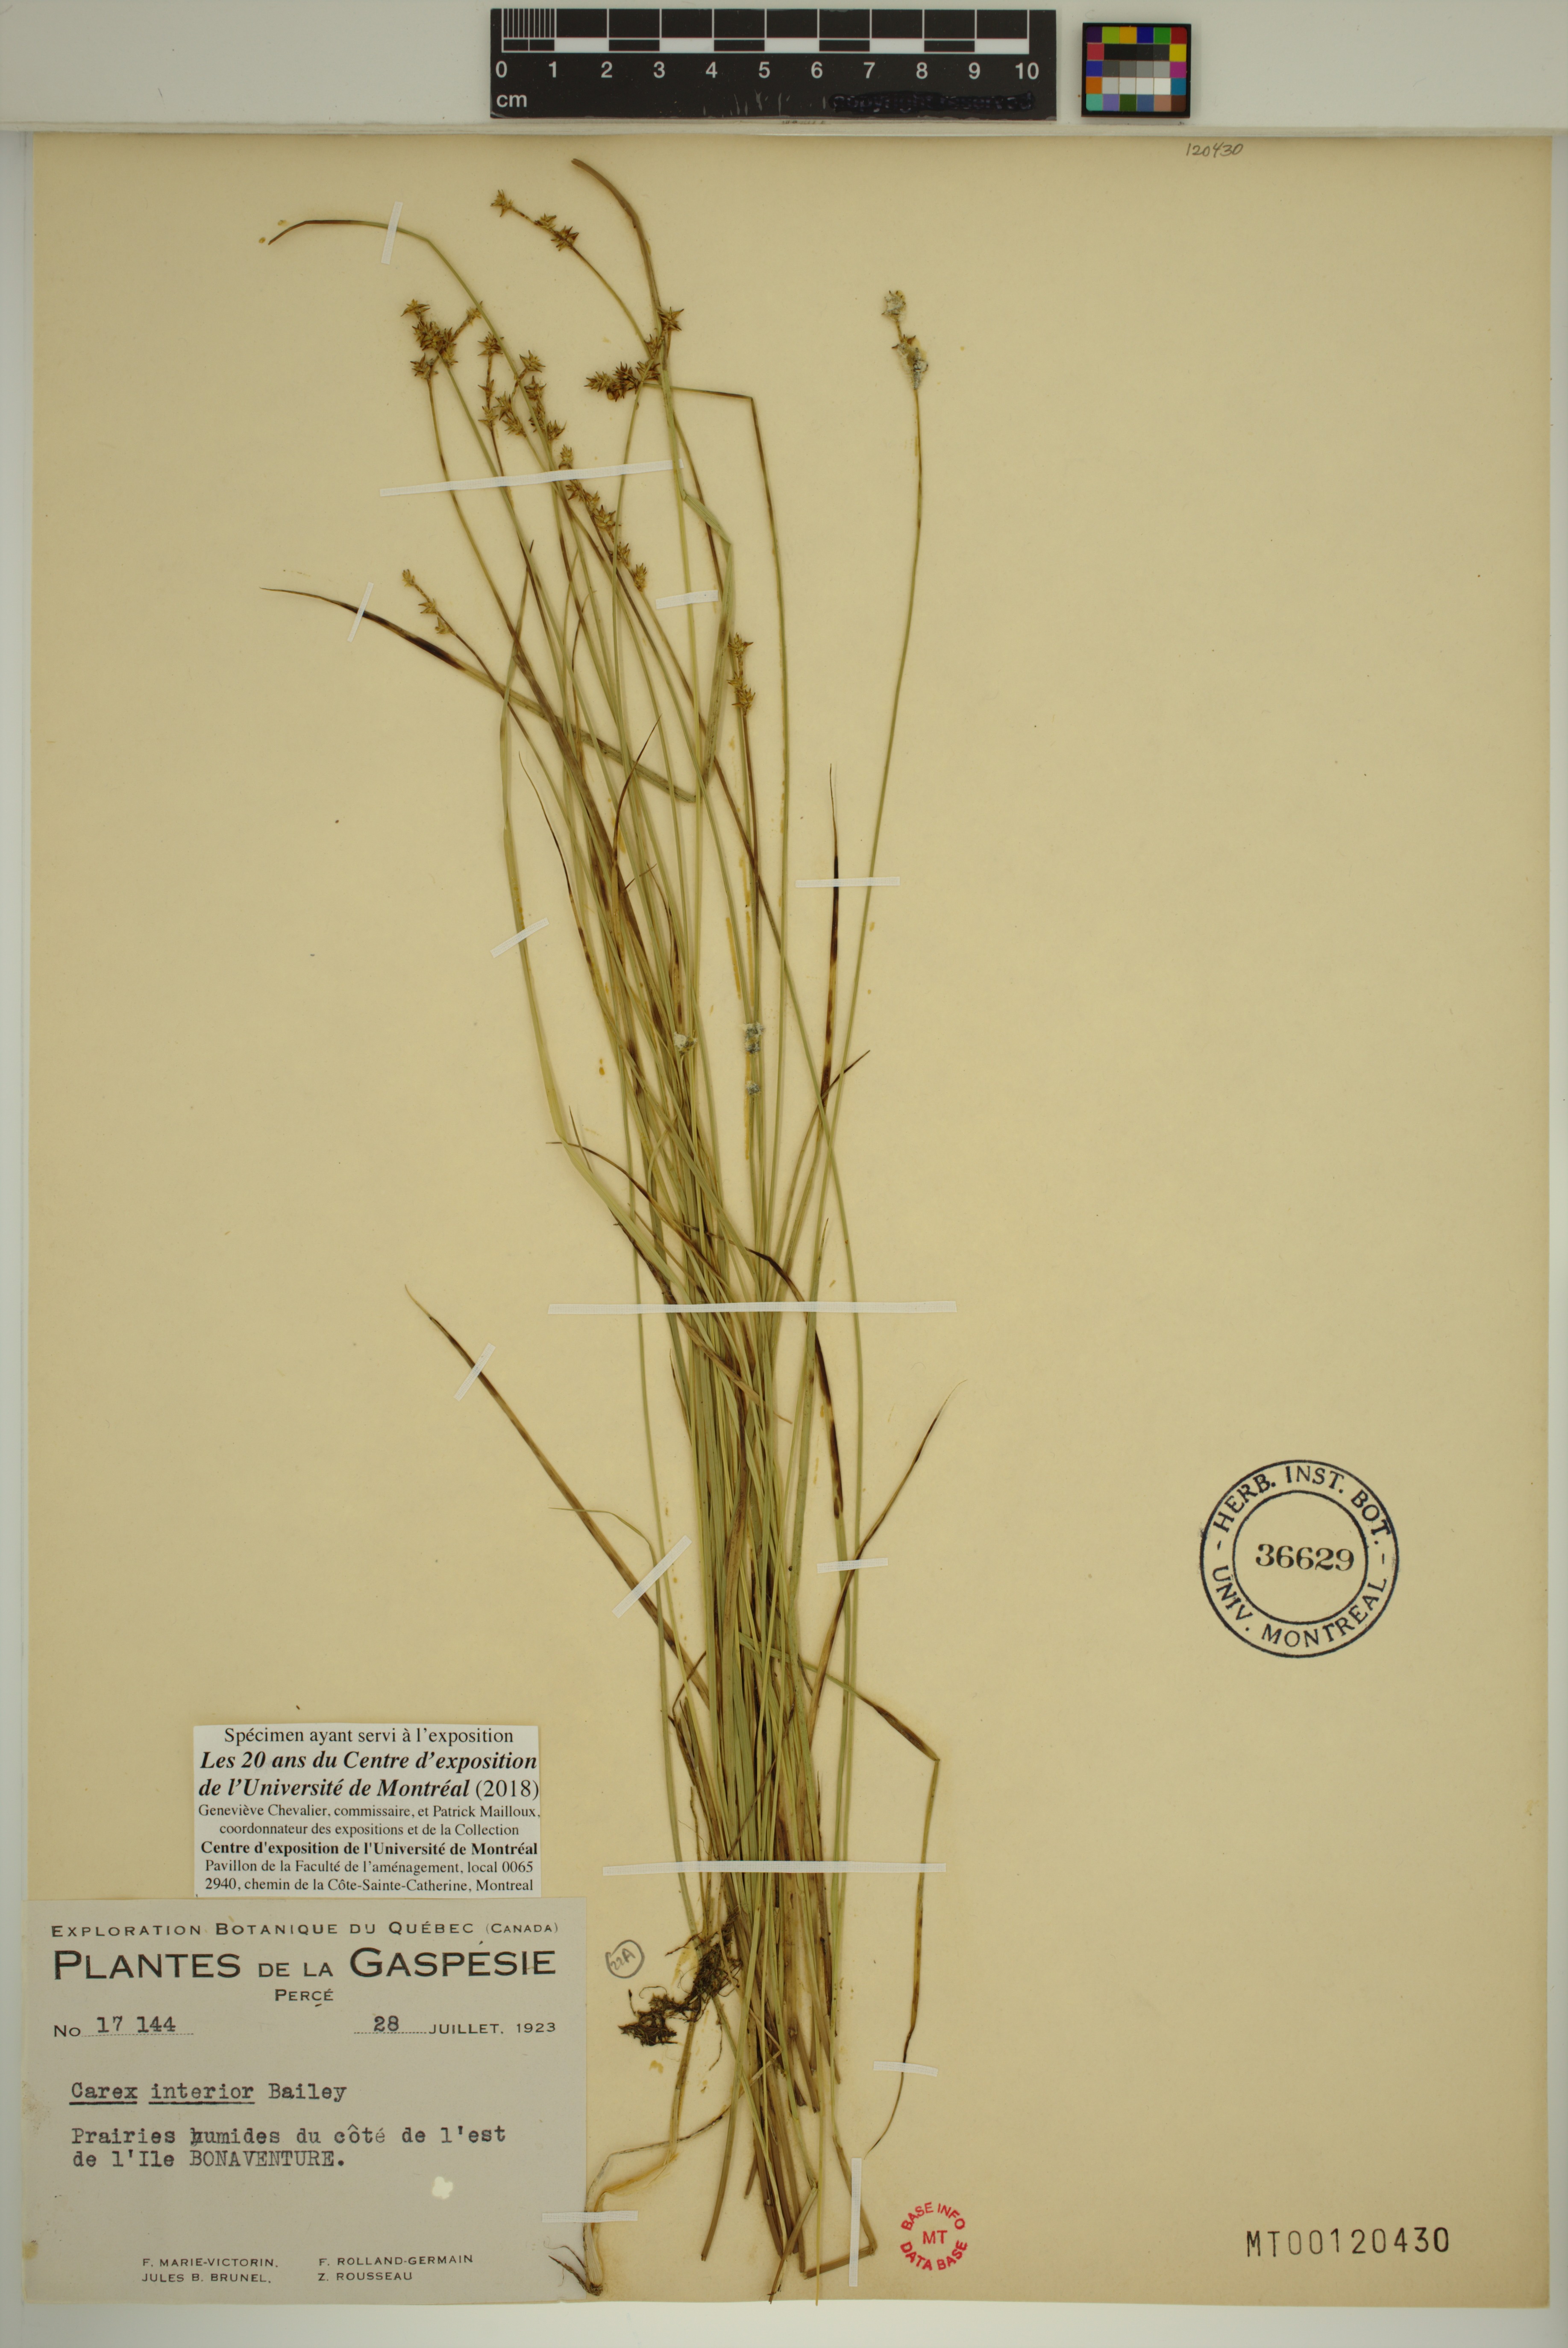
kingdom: Plantae
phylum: Tracheophyta
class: Liliopsida
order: Poales
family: Cyperaceae
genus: Carex
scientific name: Carex interior
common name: Inland sedge
